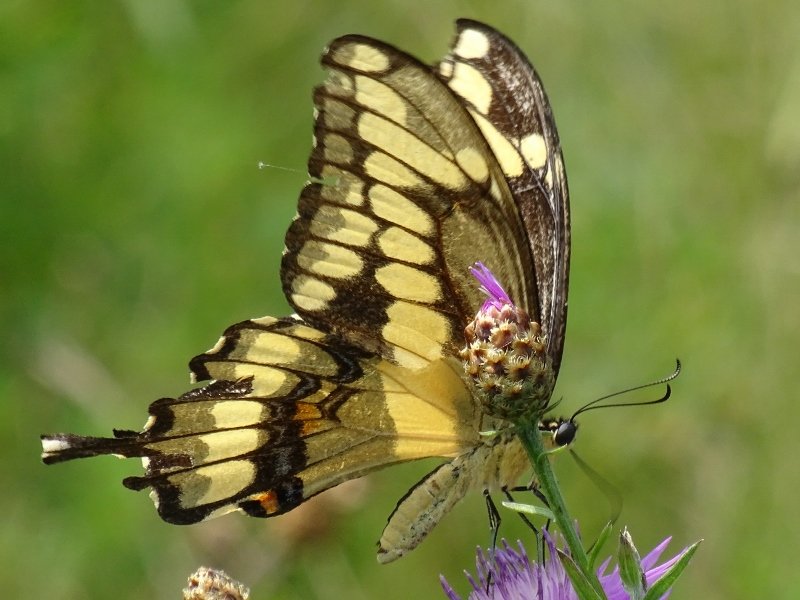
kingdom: Animalia
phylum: Arthropoda
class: Insecta
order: Lepidoptera
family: Papilionidae
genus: Papilio
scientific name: Papilio cresphontes
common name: Eastern Giant Swallowtail
